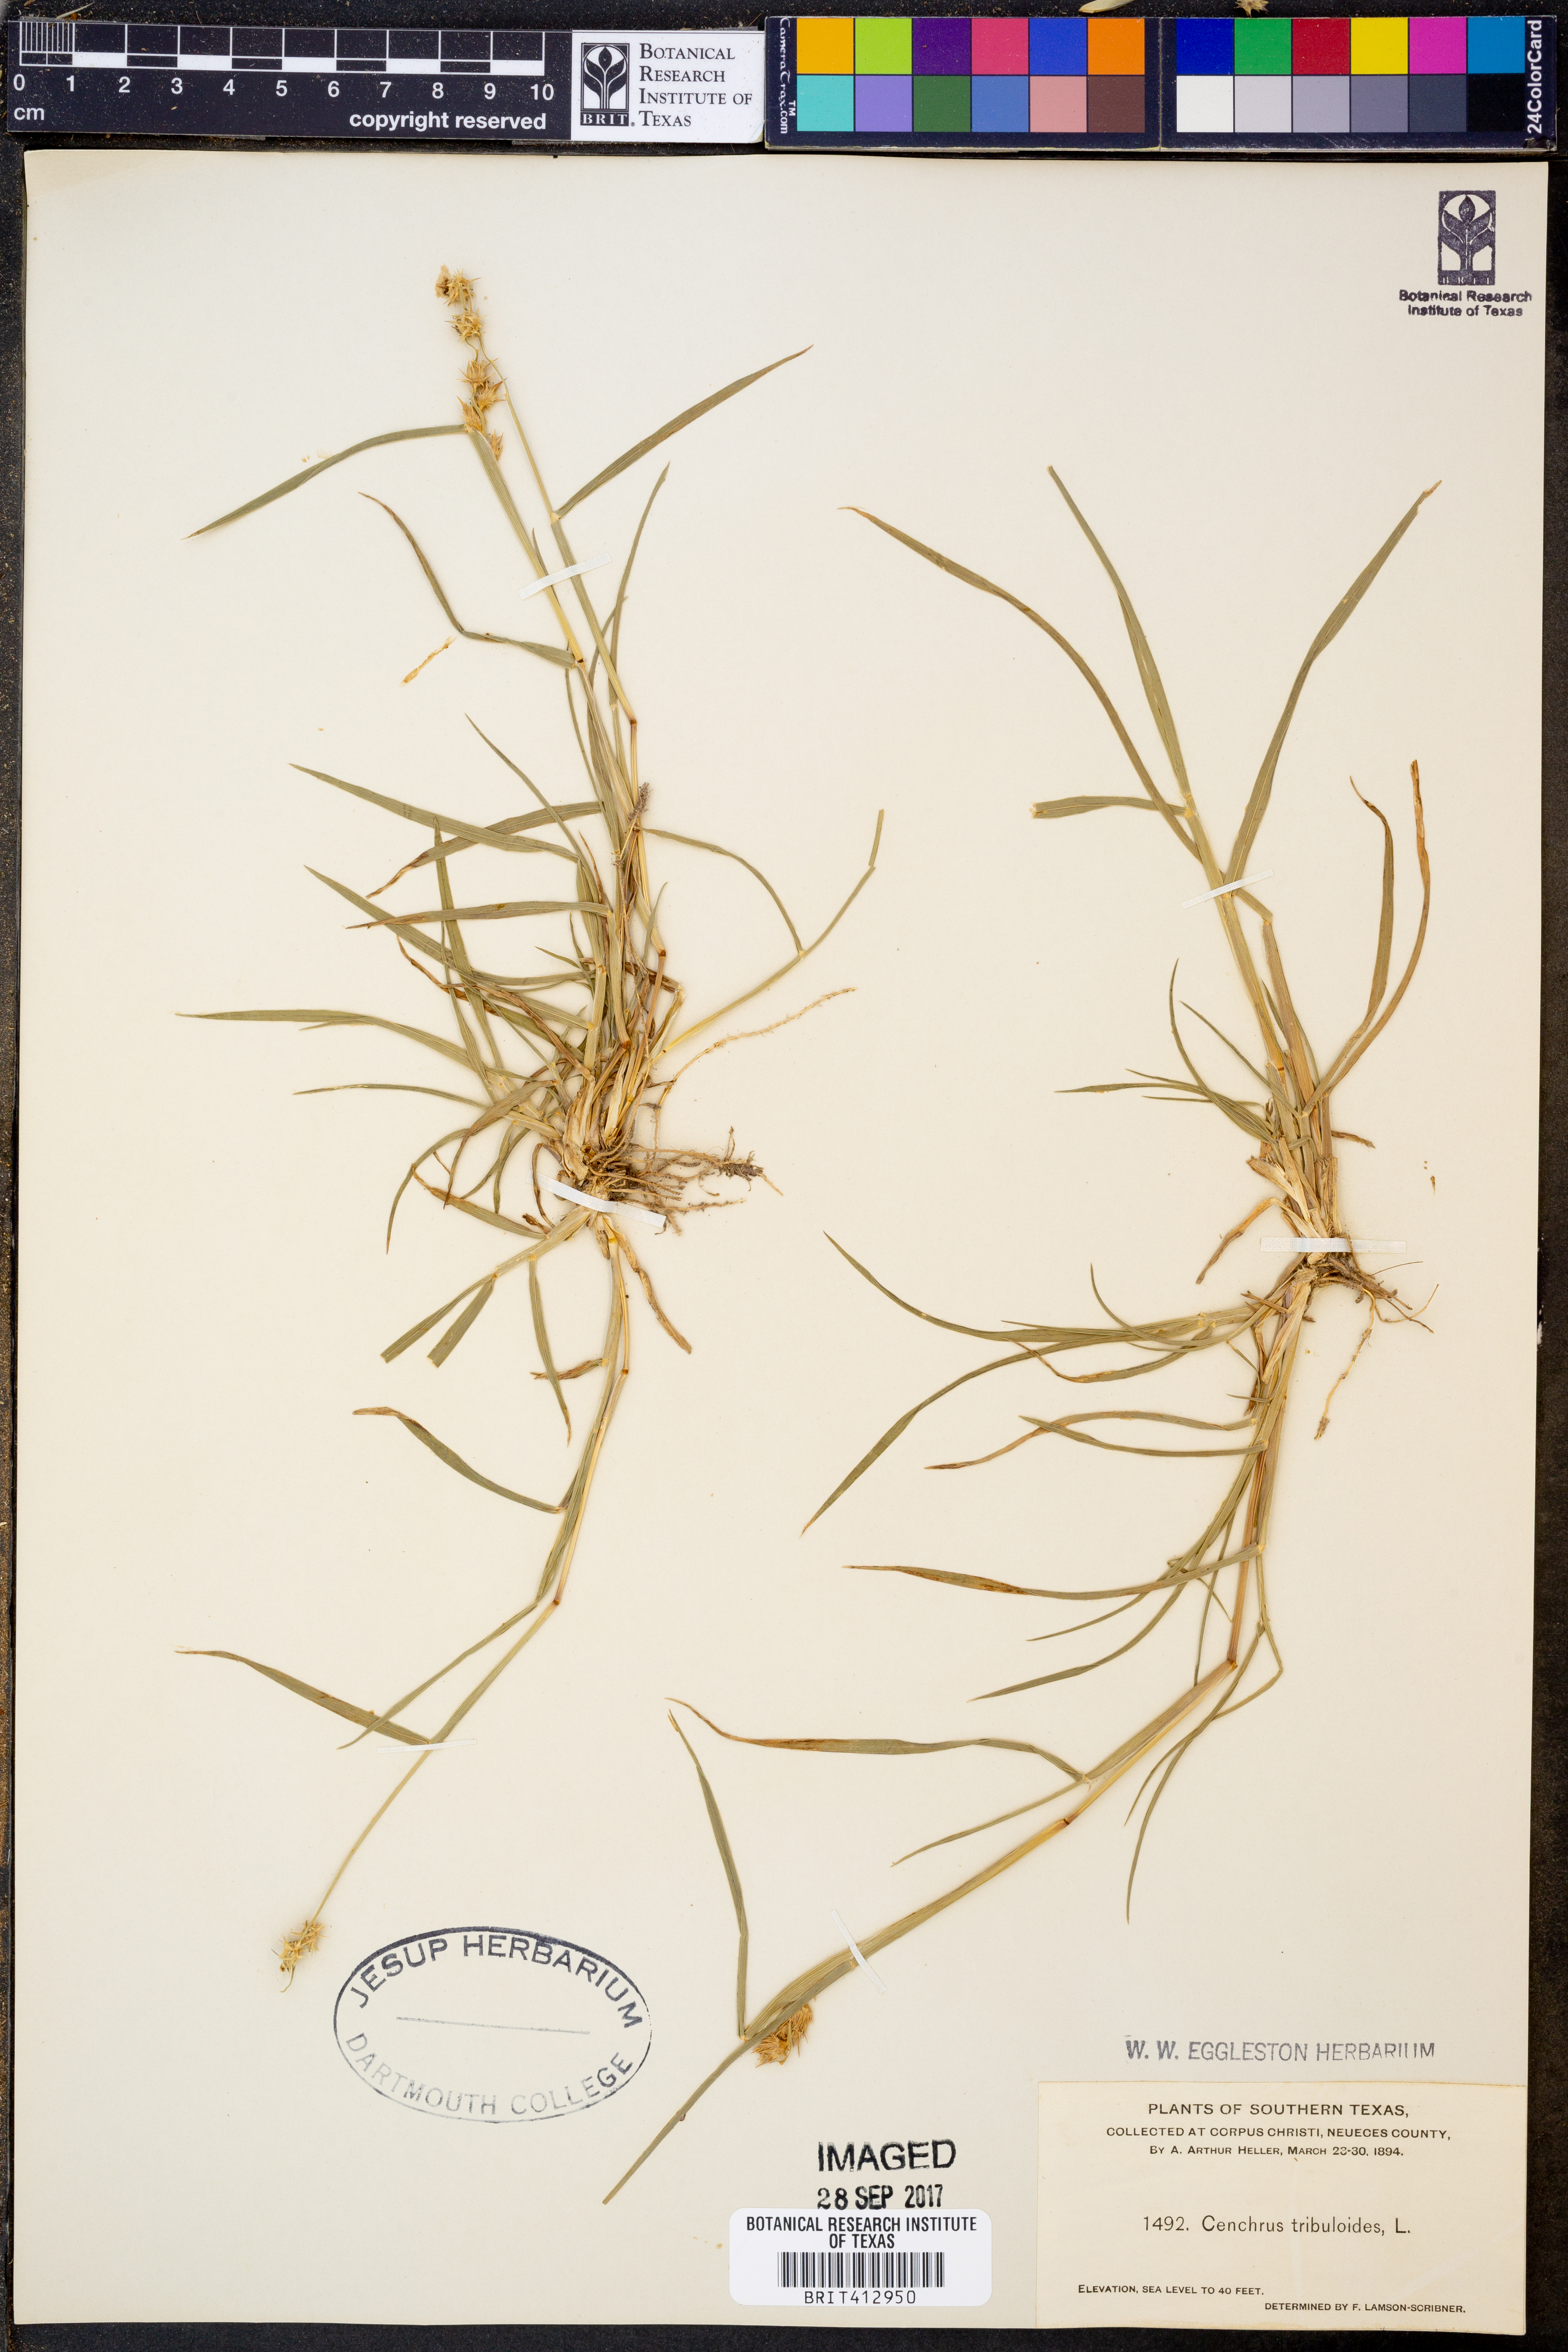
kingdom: Plantae
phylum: Tracheophyta
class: Liliopsida
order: Poales
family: Poaceae
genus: Cenchrus
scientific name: Cenchrus tribuloides
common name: Dune sandbur
